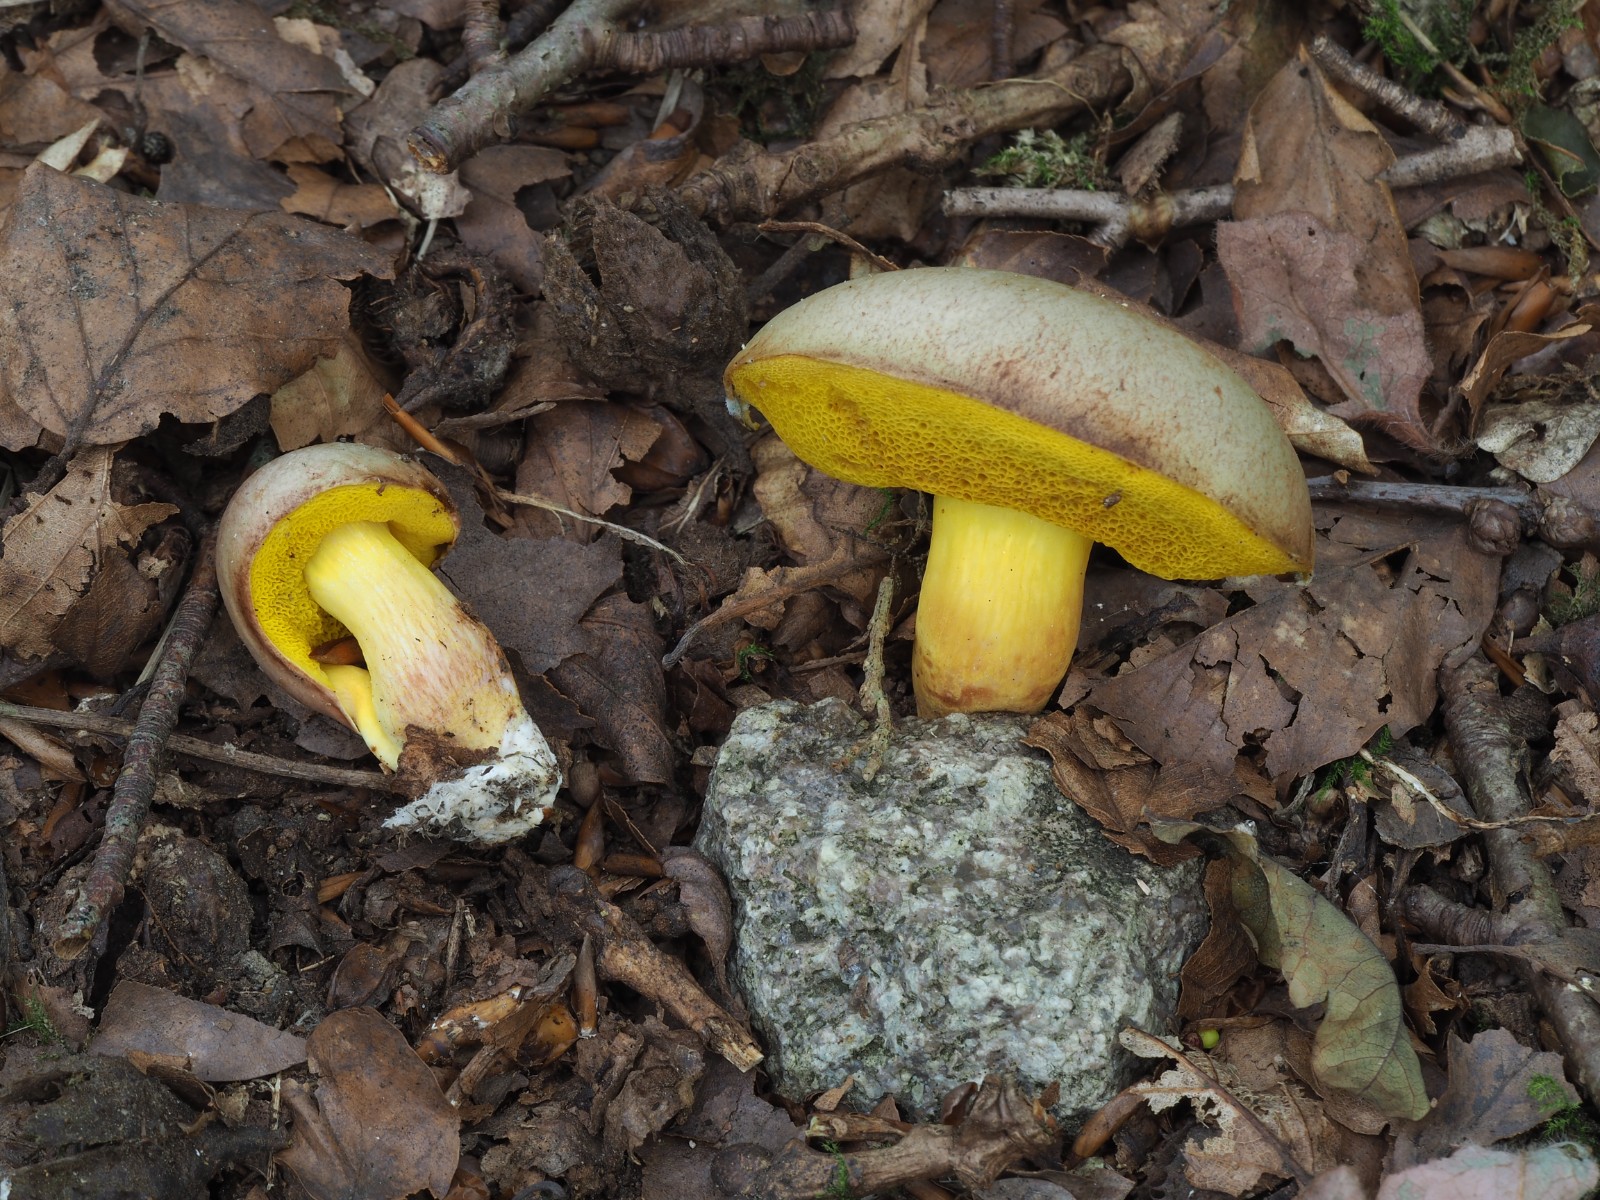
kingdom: Fungi
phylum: Basidiomycota
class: Agaricomycetes
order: Boletales
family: Boletaceae
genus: Aureoboletus
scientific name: Aureoboletus gentilis
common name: guldrørhat
